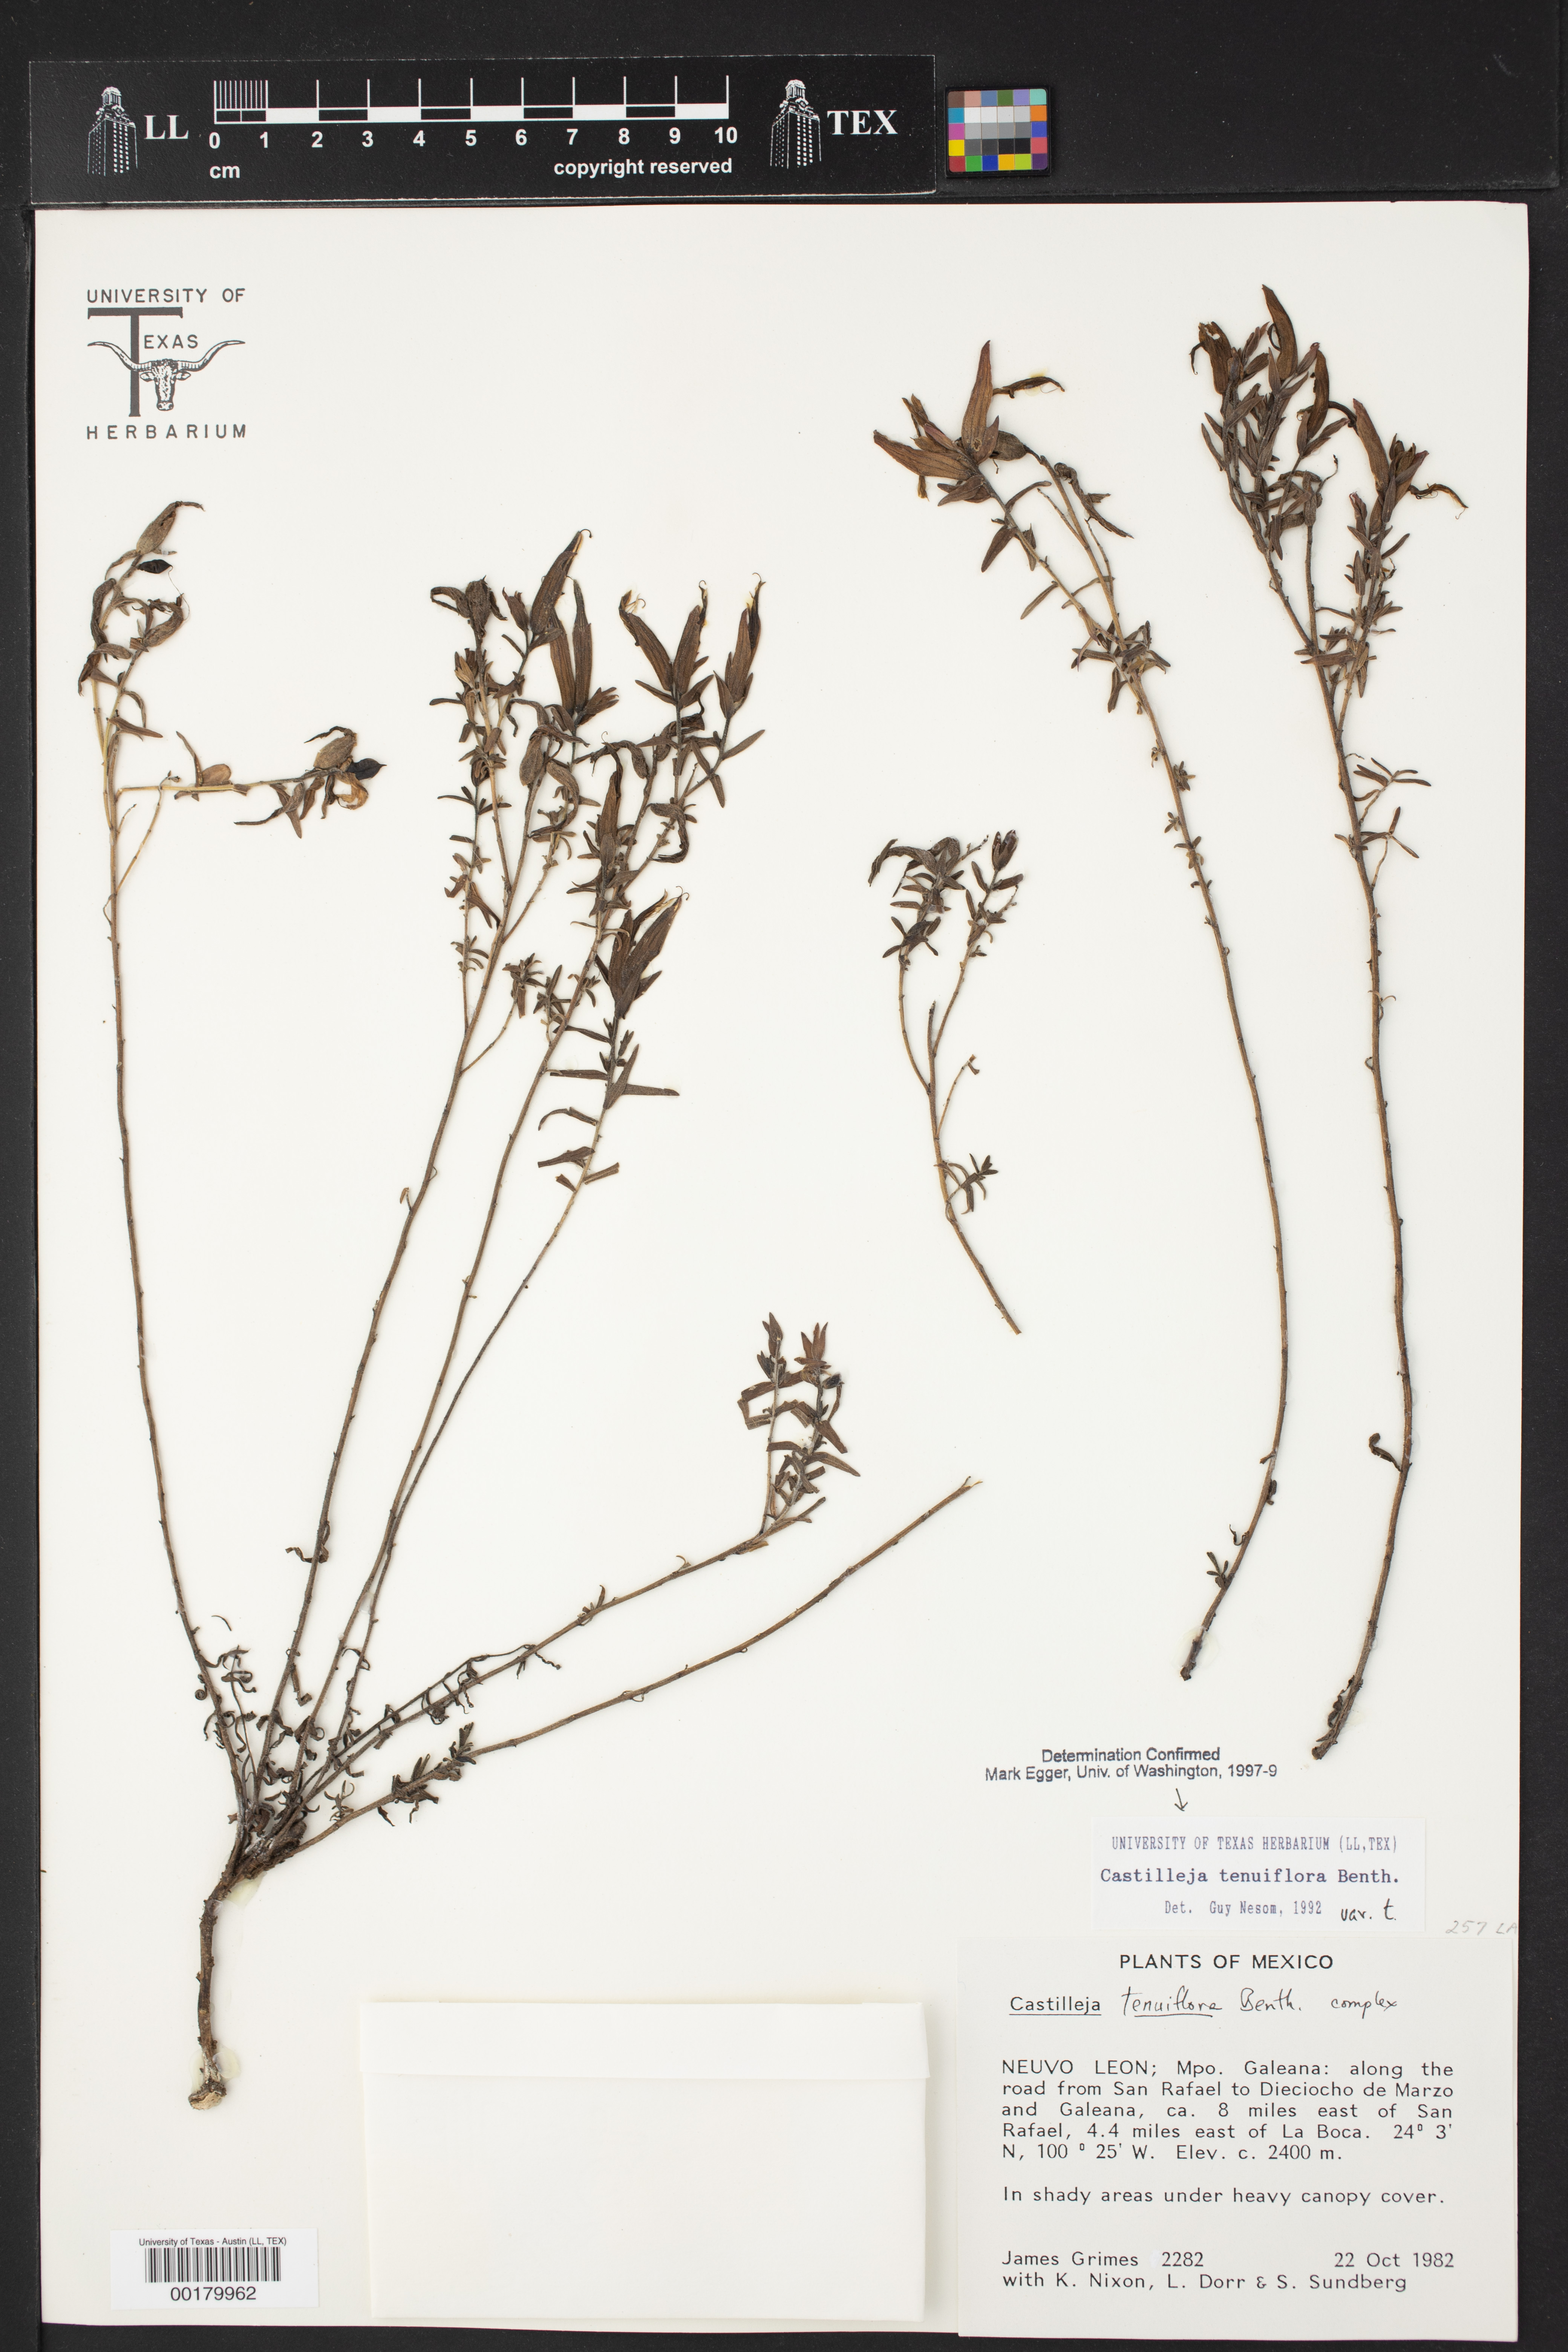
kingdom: Plantae
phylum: Tracheophyta
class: Magnoliopsida
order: Lamiales
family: Orobanchaceae
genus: Castilleja
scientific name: Castilleja tenuiflora
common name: Santa catalina indian paintbrush
